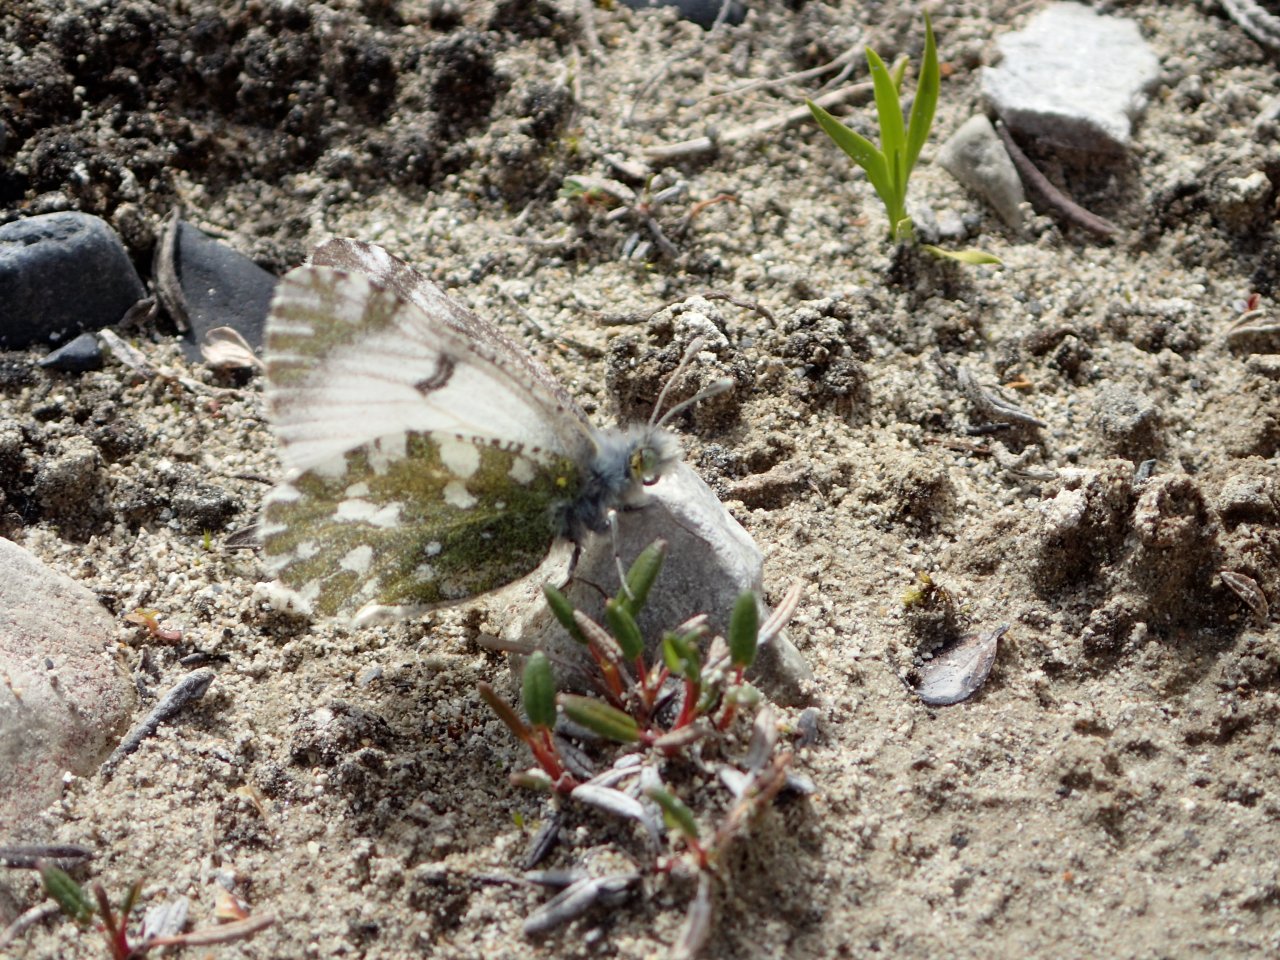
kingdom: Animalia
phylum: Arthropoda
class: Insecta
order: Lepidoptera
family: Pieridae
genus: Euchloe
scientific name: Euchloe naina
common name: Green Marble
